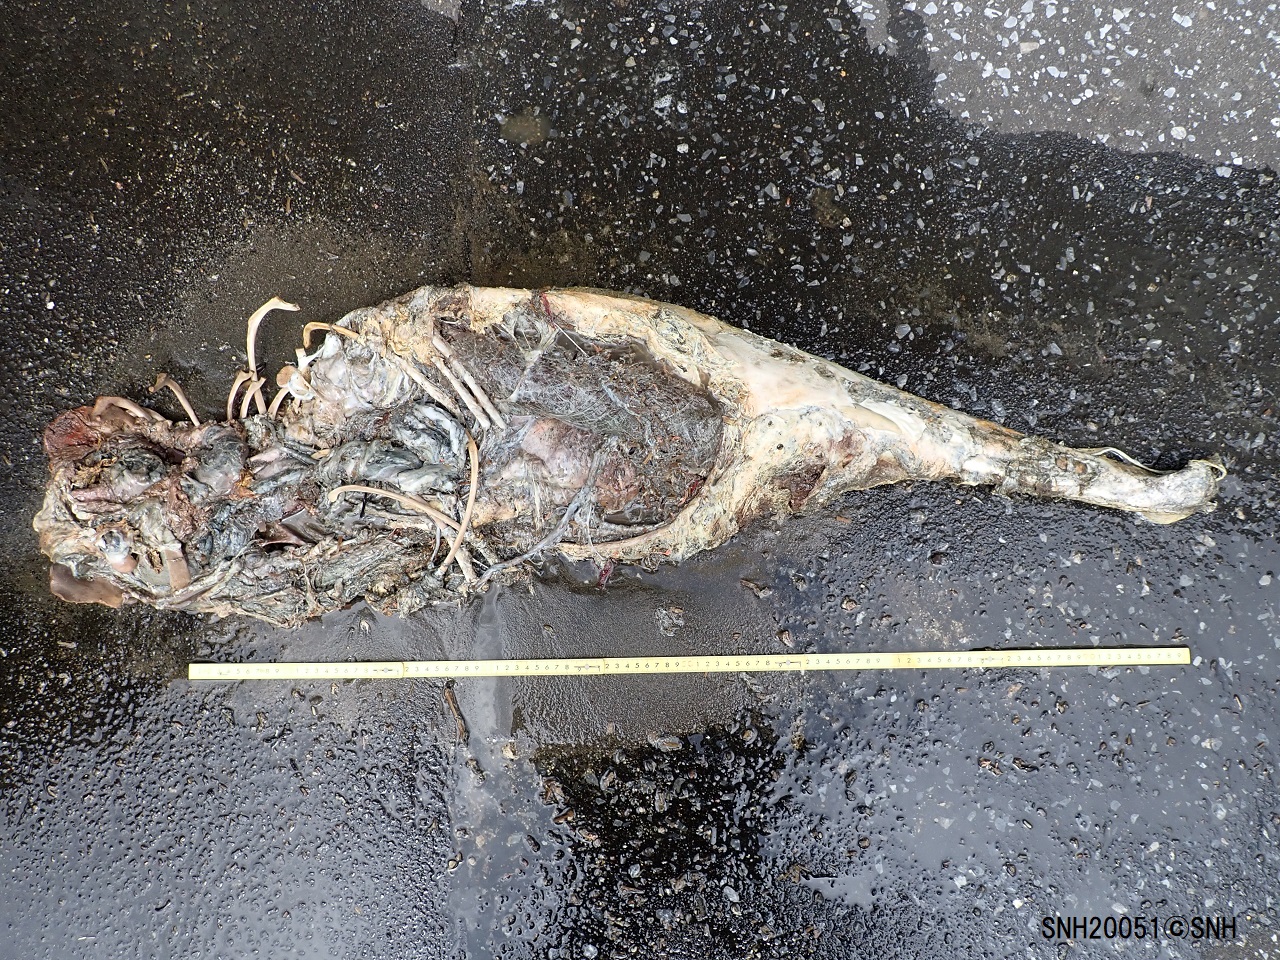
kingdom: Animalia
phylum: Chordata
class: Mammalia
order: Cetacea
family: Phocoenidae
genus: Phocoena
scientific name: Phocoena phocoena
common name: Harbour porpoise
